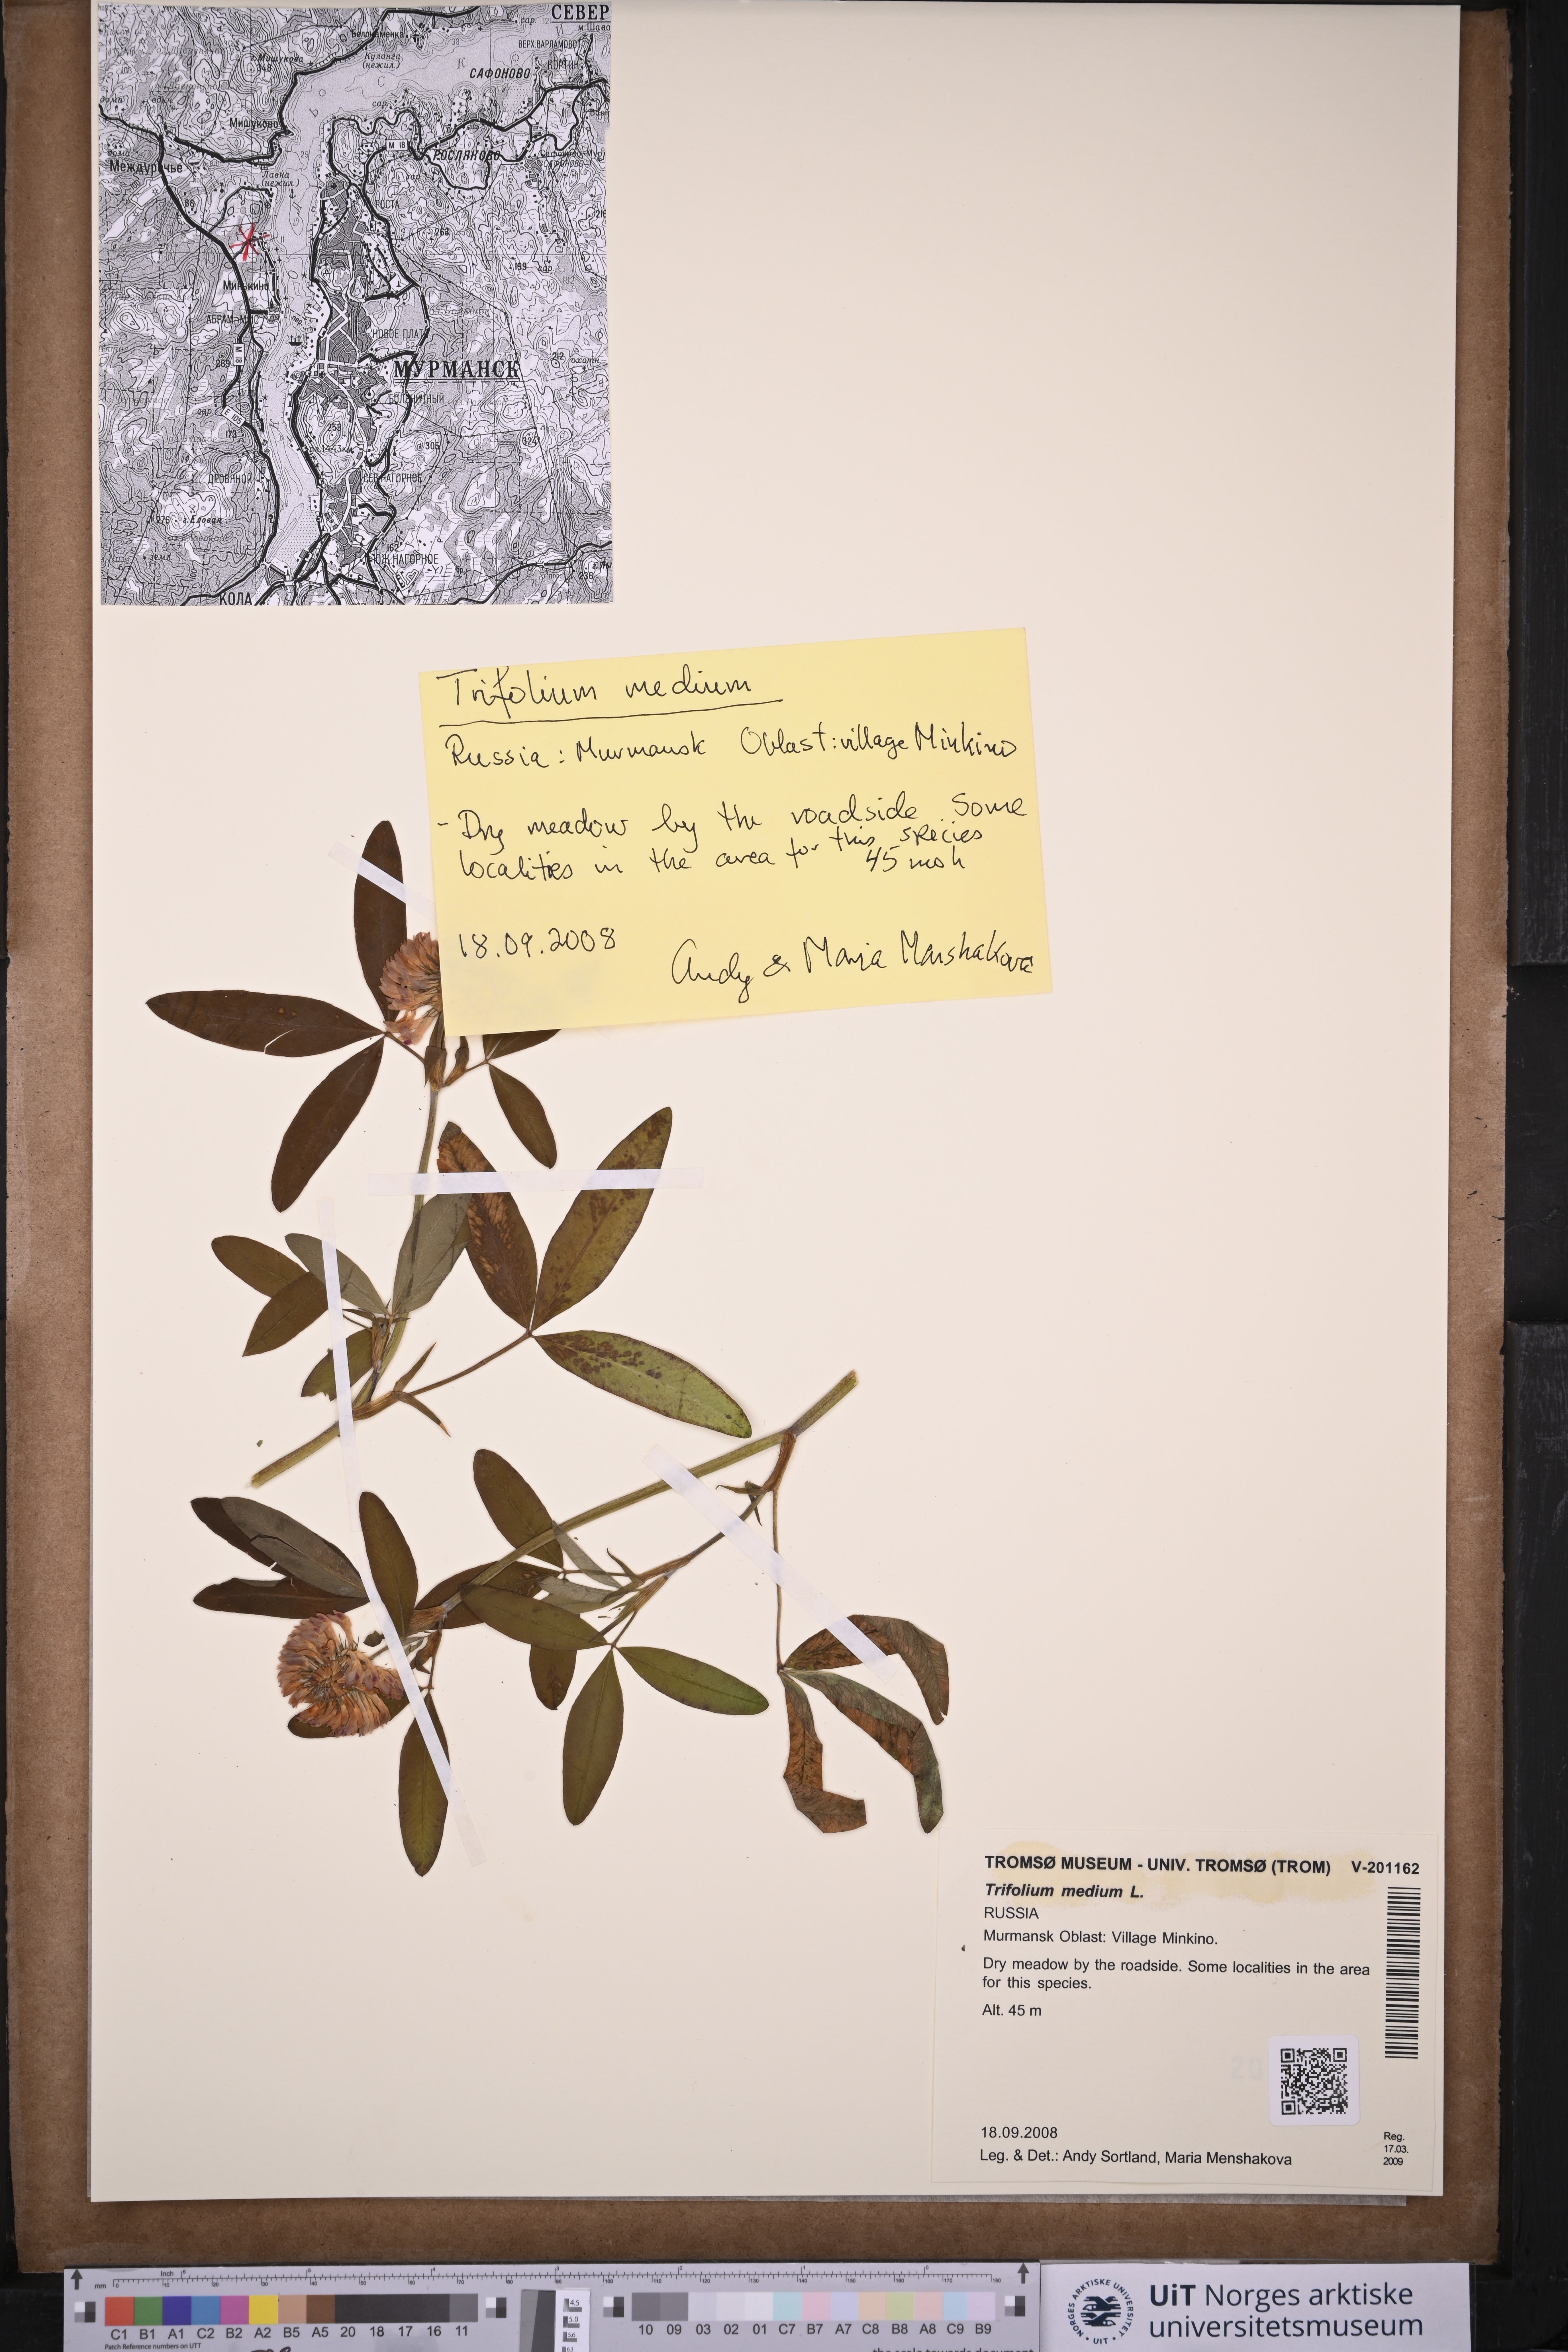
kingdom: Plantae
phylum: Tracheophyta
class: Magnoliopsida
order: Fabales
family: Fabaceae
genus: Trifolium
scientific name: Trifolium medium
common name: Zigzag clover
